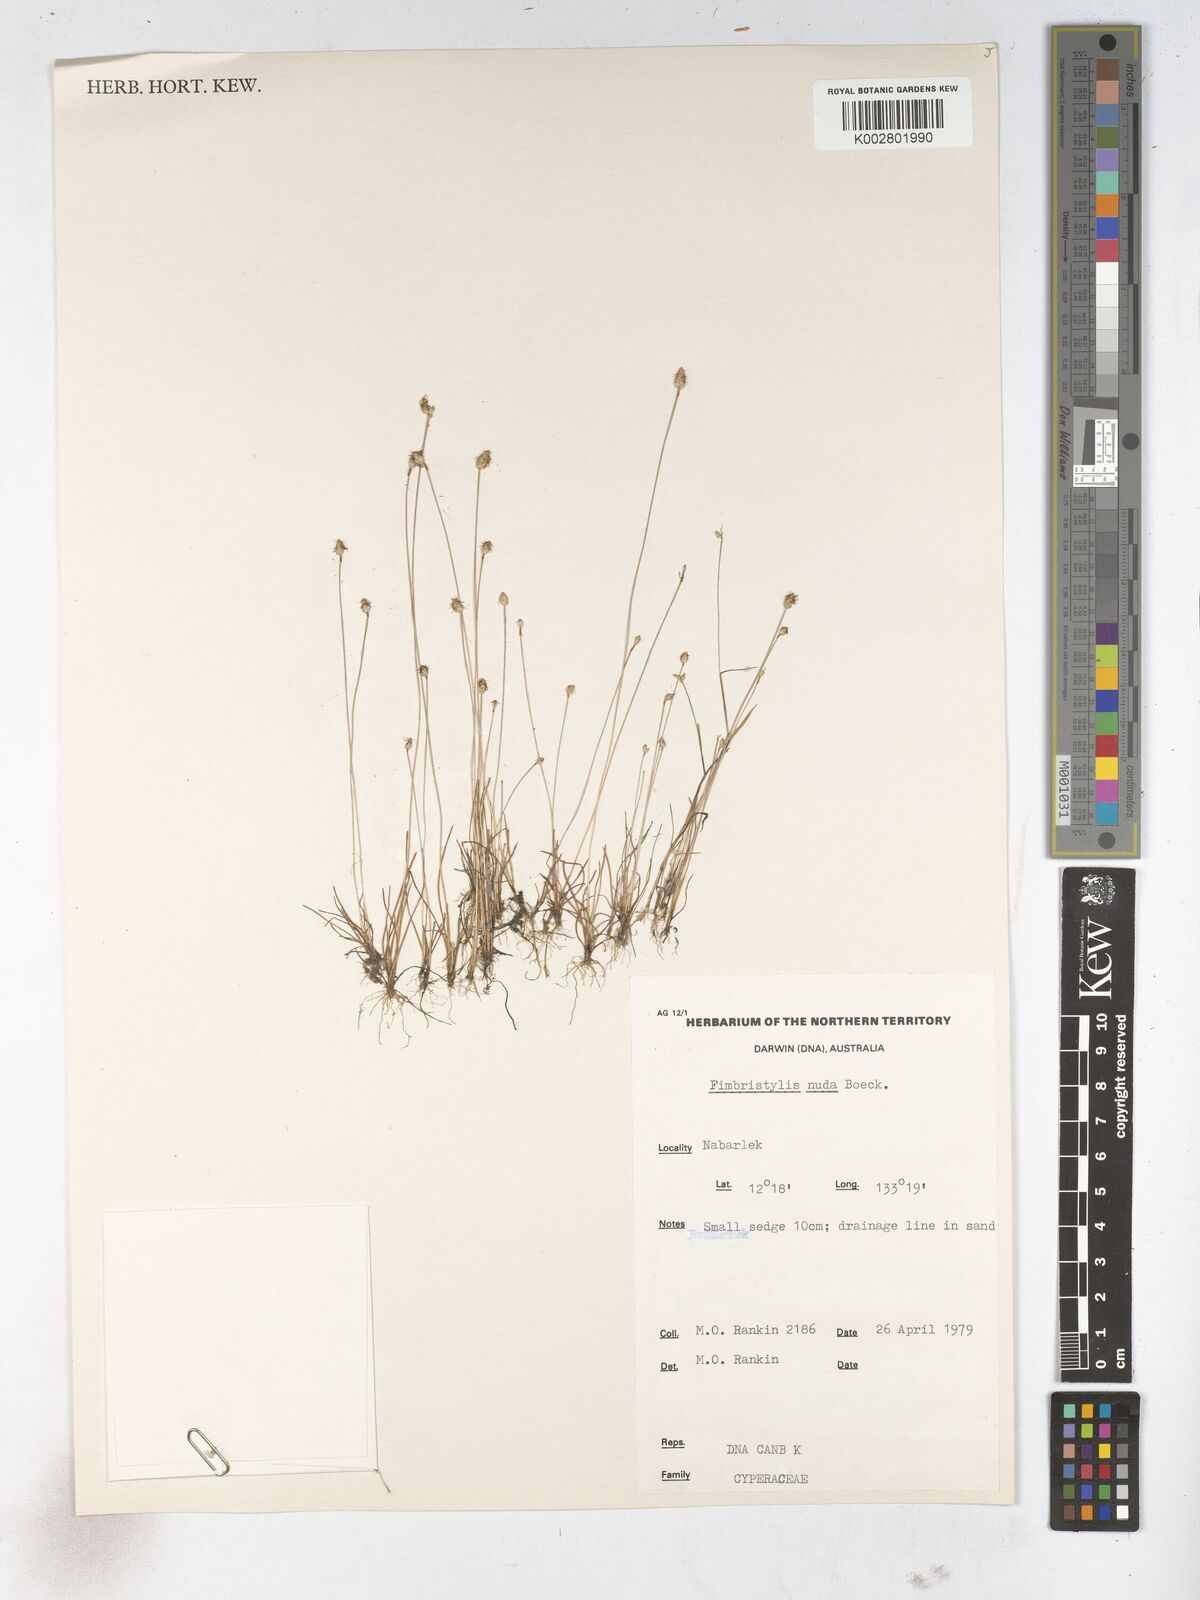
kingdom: Plantae
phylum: Tracheophyta
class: Liliopsida
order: Poales
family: Cyperaceae
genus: Fimbristylis
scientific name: Fimbristylis nuda
